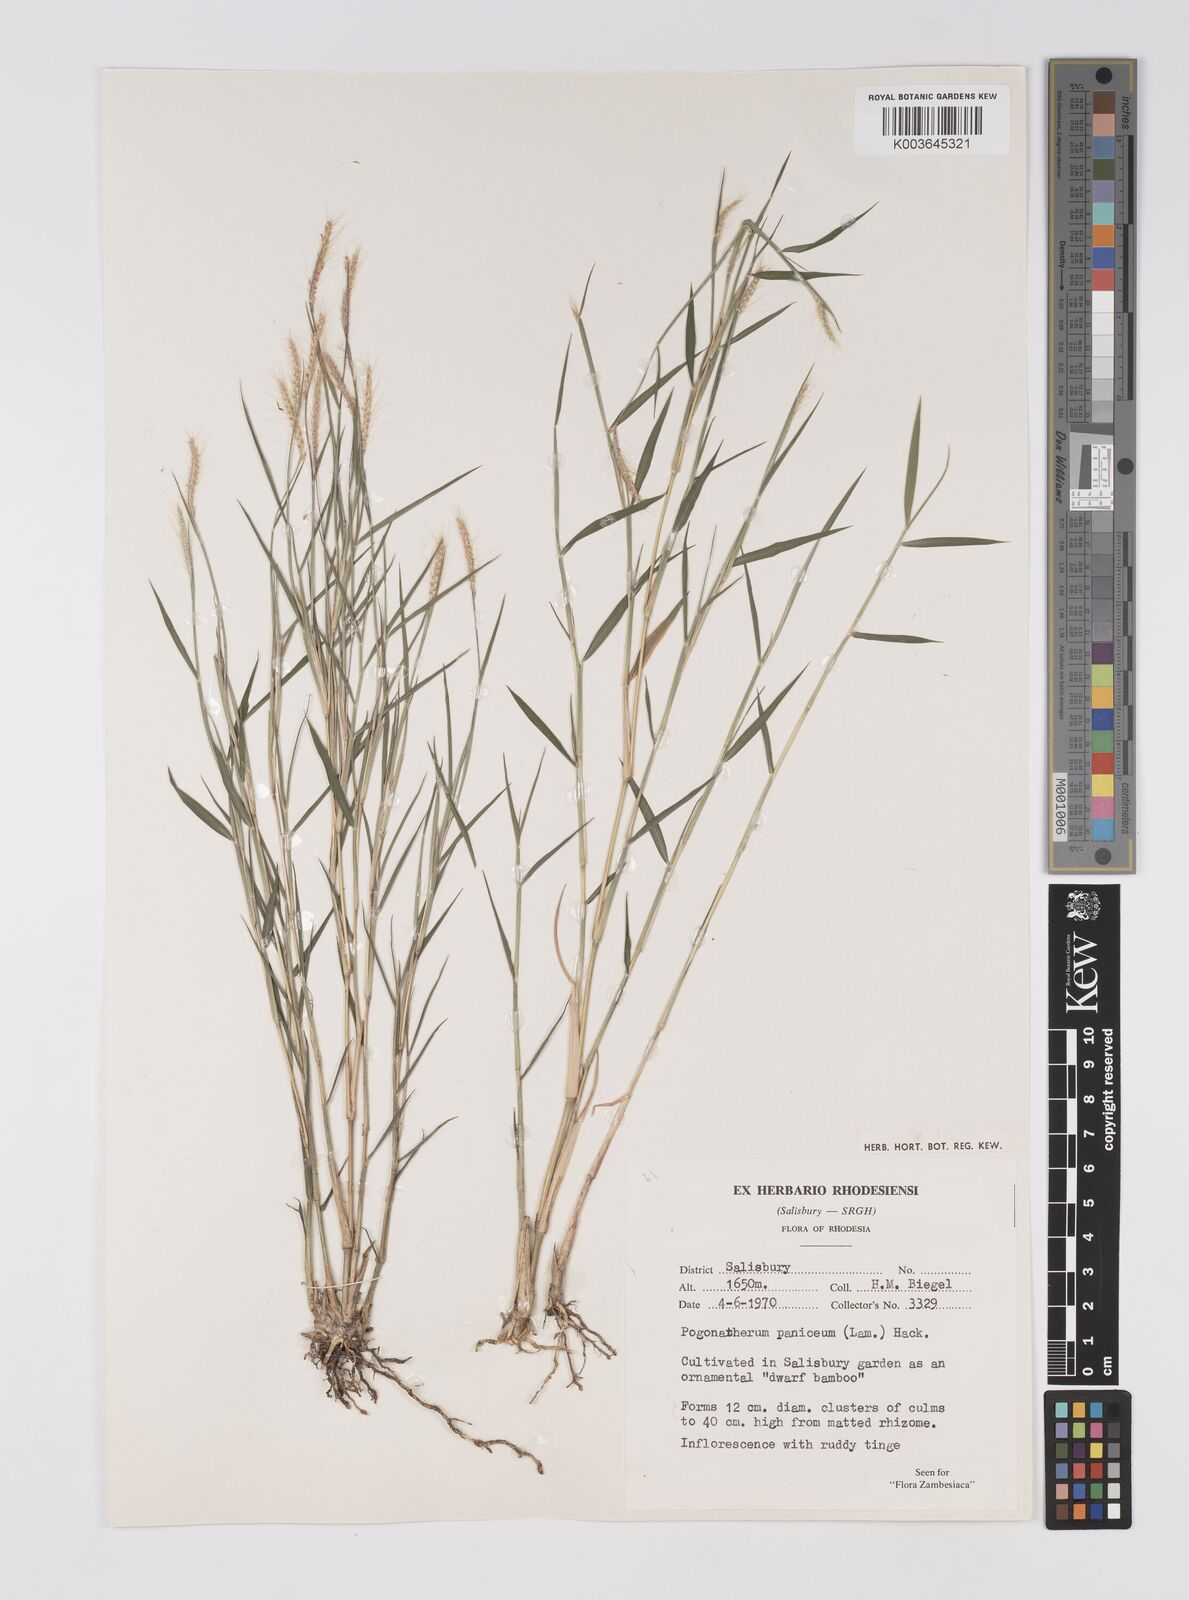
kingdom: Plantae
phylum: Tracheophyta
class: Liliopsida
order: Poales
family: Poaceae
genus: Pogonatherum
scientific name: Pogonatherum paniceum
